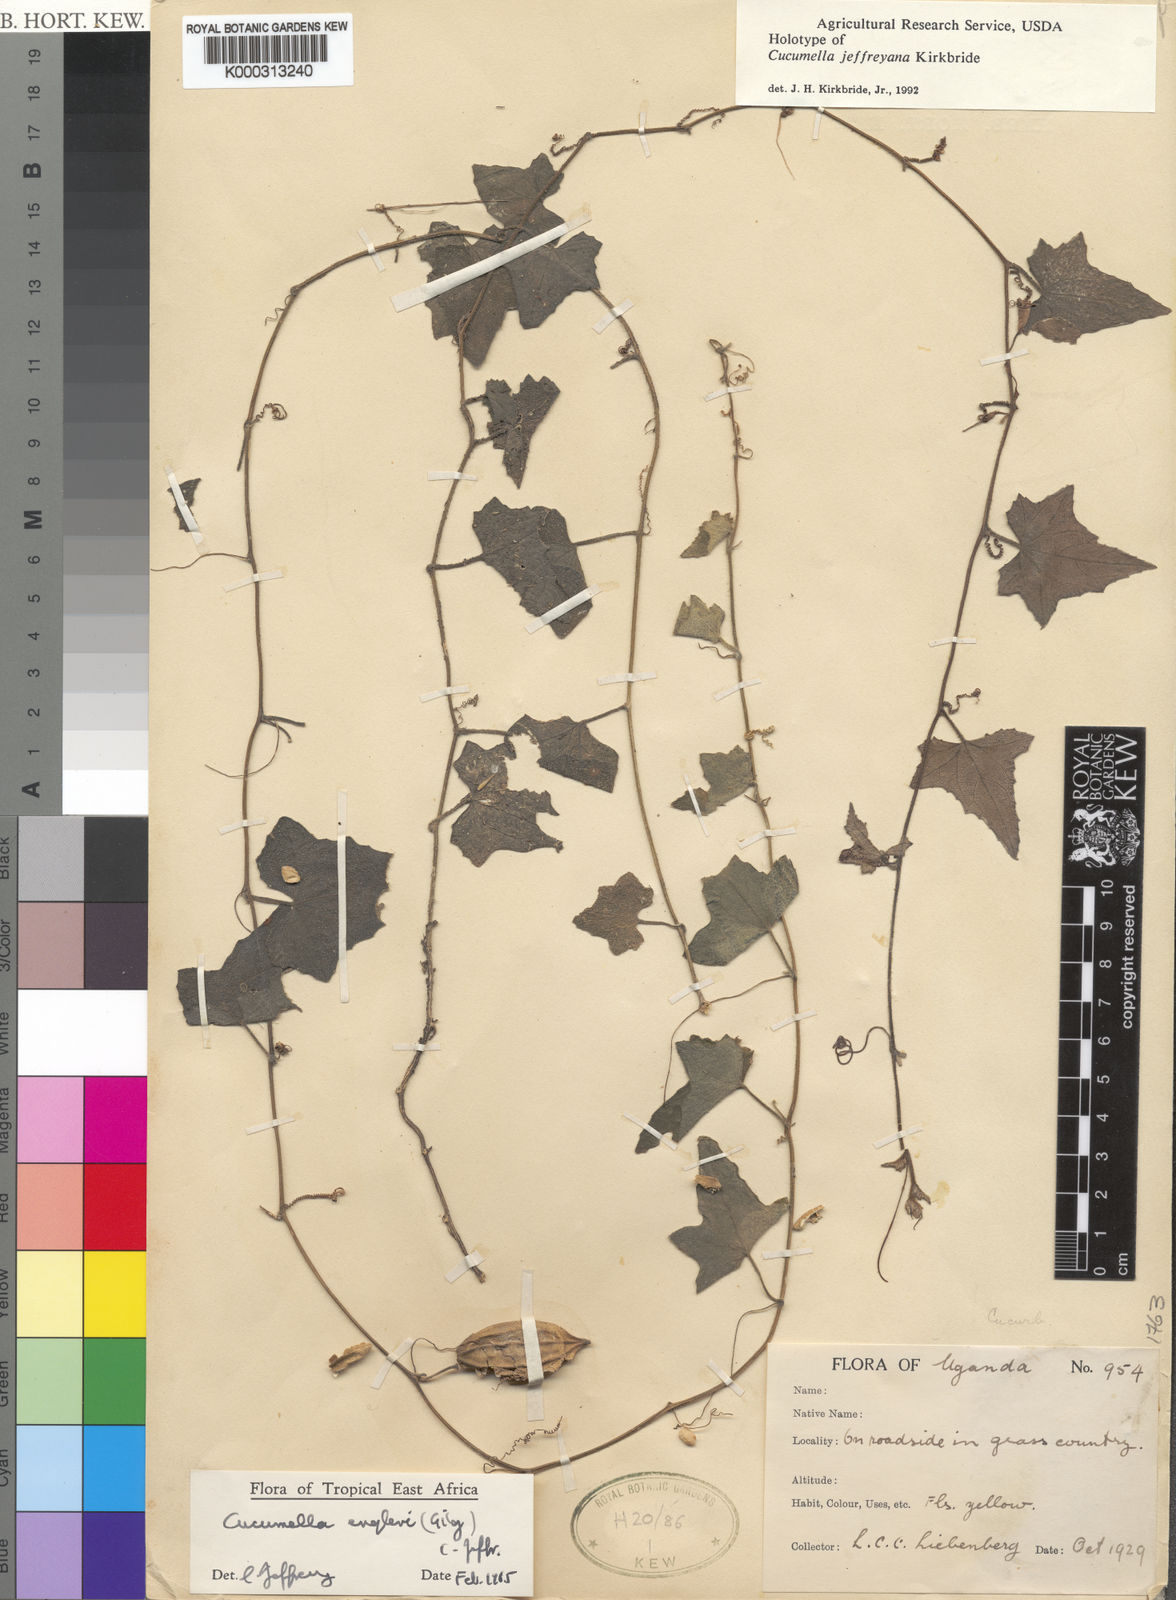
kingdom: Plantae
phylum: Tracheophyta
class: Magnoliopsida
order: Cucurbitales
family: Cucurbitaceae
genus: Cucumis
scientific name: Cucumis kirkbridei
